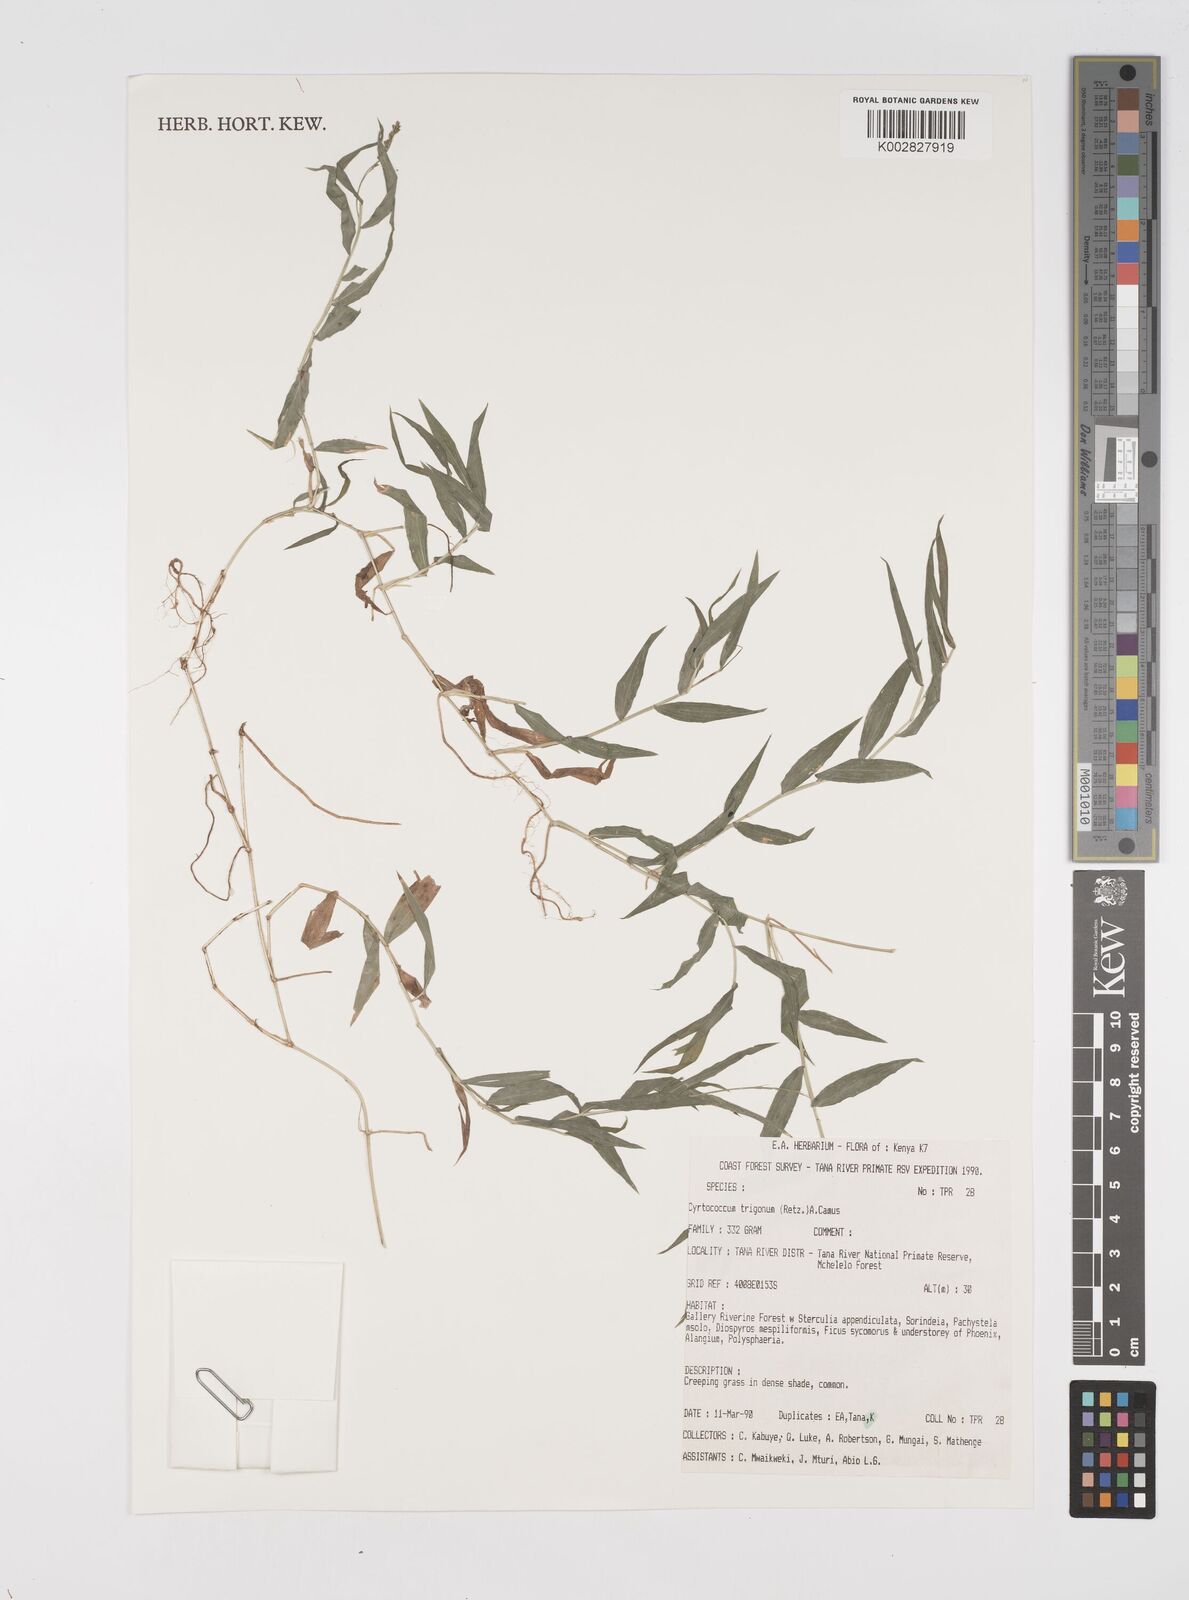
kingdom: Plantae
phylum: Tracheophyta
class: Liliopsida
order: Poales
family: Poaceae
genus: Cyrtococcum
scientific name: Cyrtococcum trigonum
